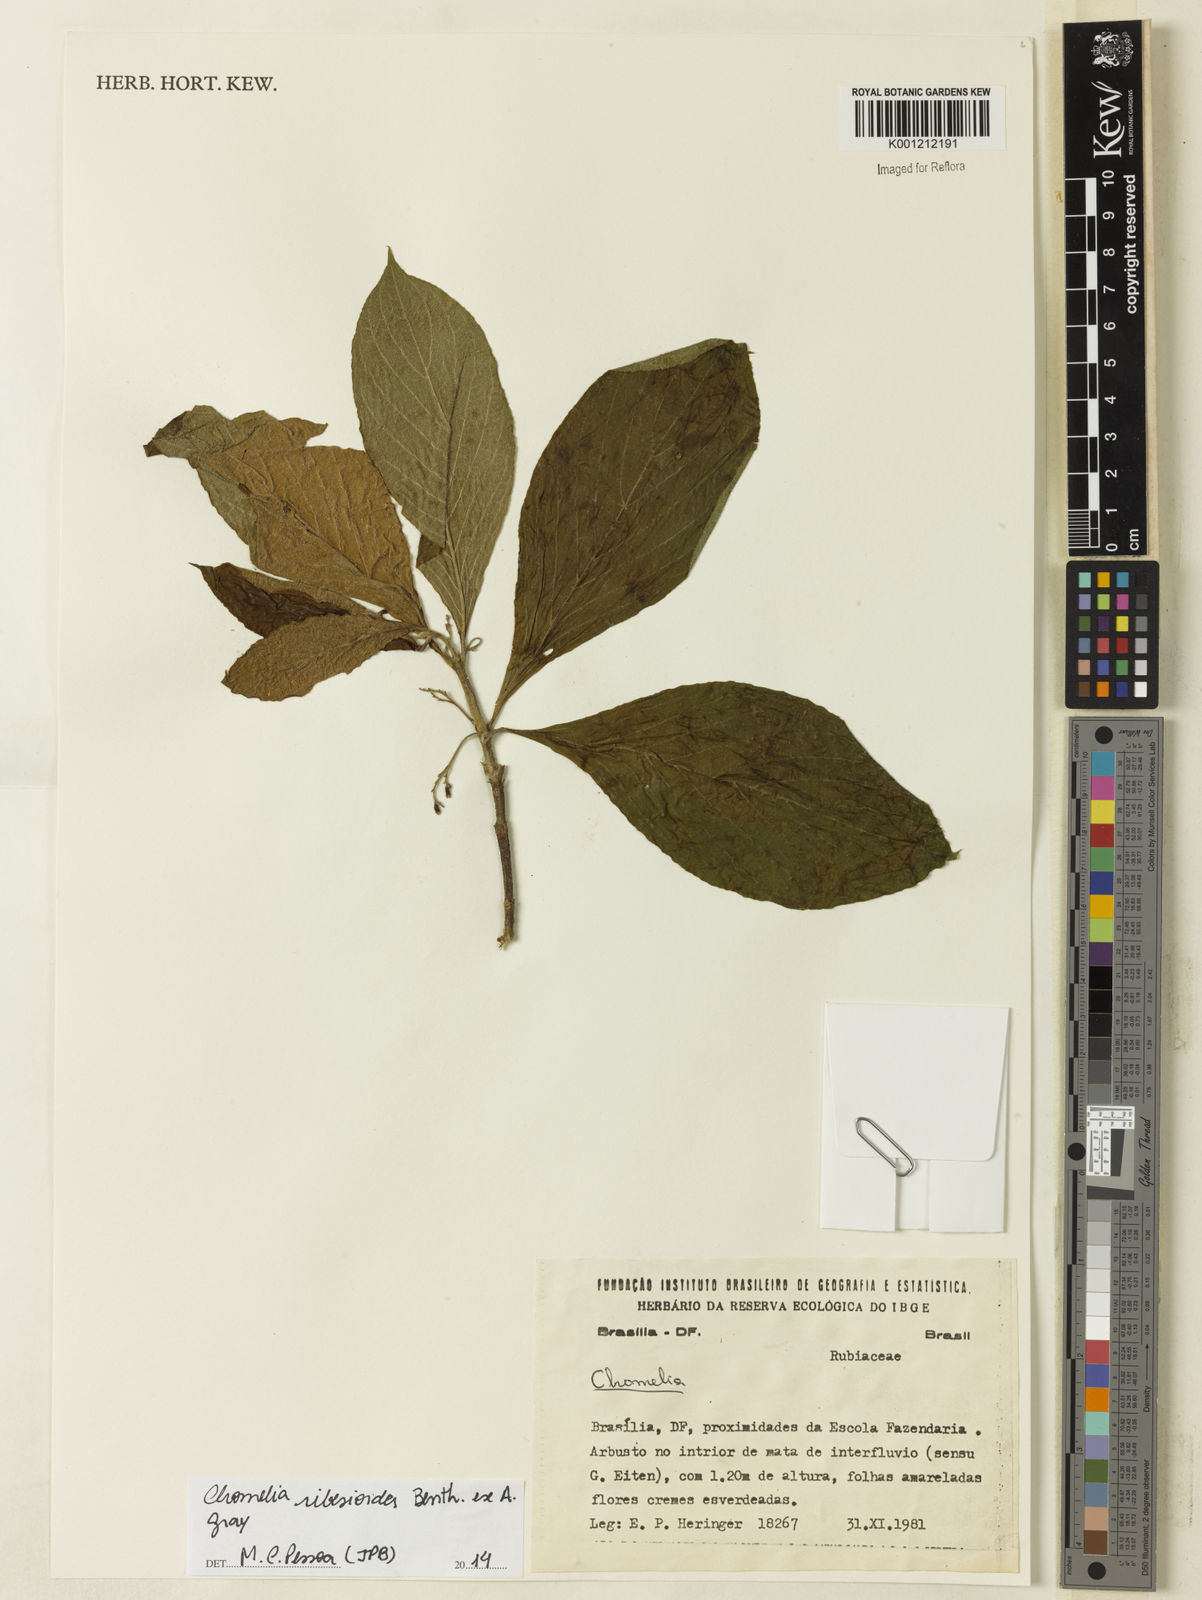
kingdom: Plantae
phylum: Tracheophyta
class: Magnoliopsida
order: Gentianales
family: Rubiaceae
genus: Chomelia
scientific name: Chomelia ribesioides
